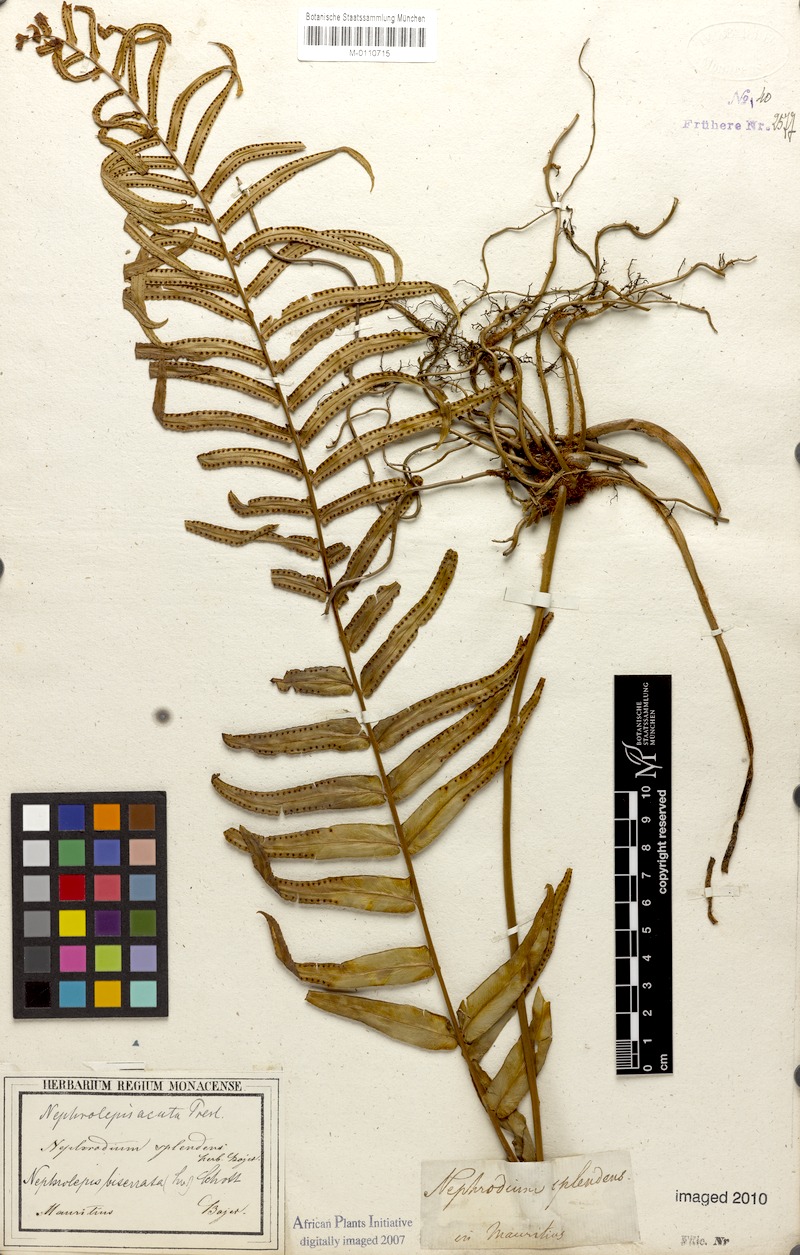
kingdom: Plantae
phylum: Tracheophyta
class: Polypodiopsida
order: Polypodiales
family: Nephrolepidaceae
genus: Nephrolepis
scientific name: Nephrolepis biserrata
